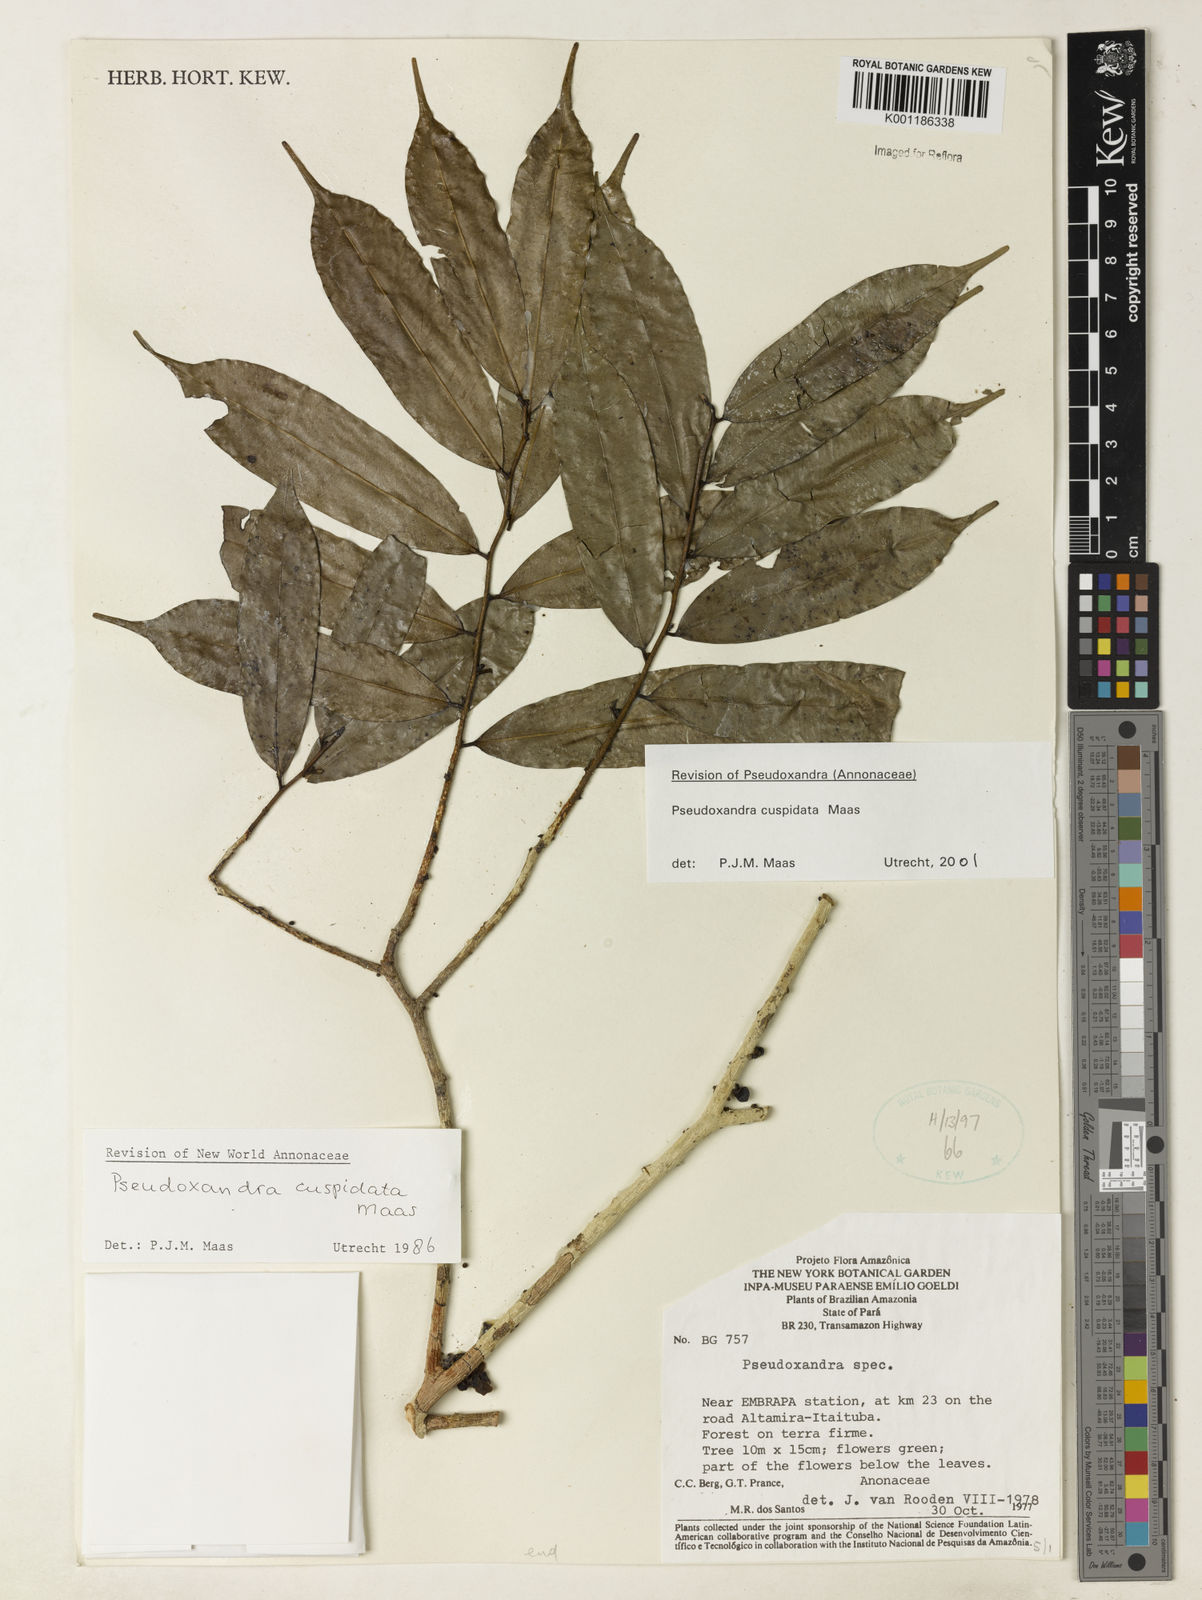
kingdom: Plantae
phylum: Tracheophyta
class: Magnoliopsida
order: Magnoliales
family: Annonaceae
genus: Pseudoxandra
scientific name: Pseudoxandra cuspidata
